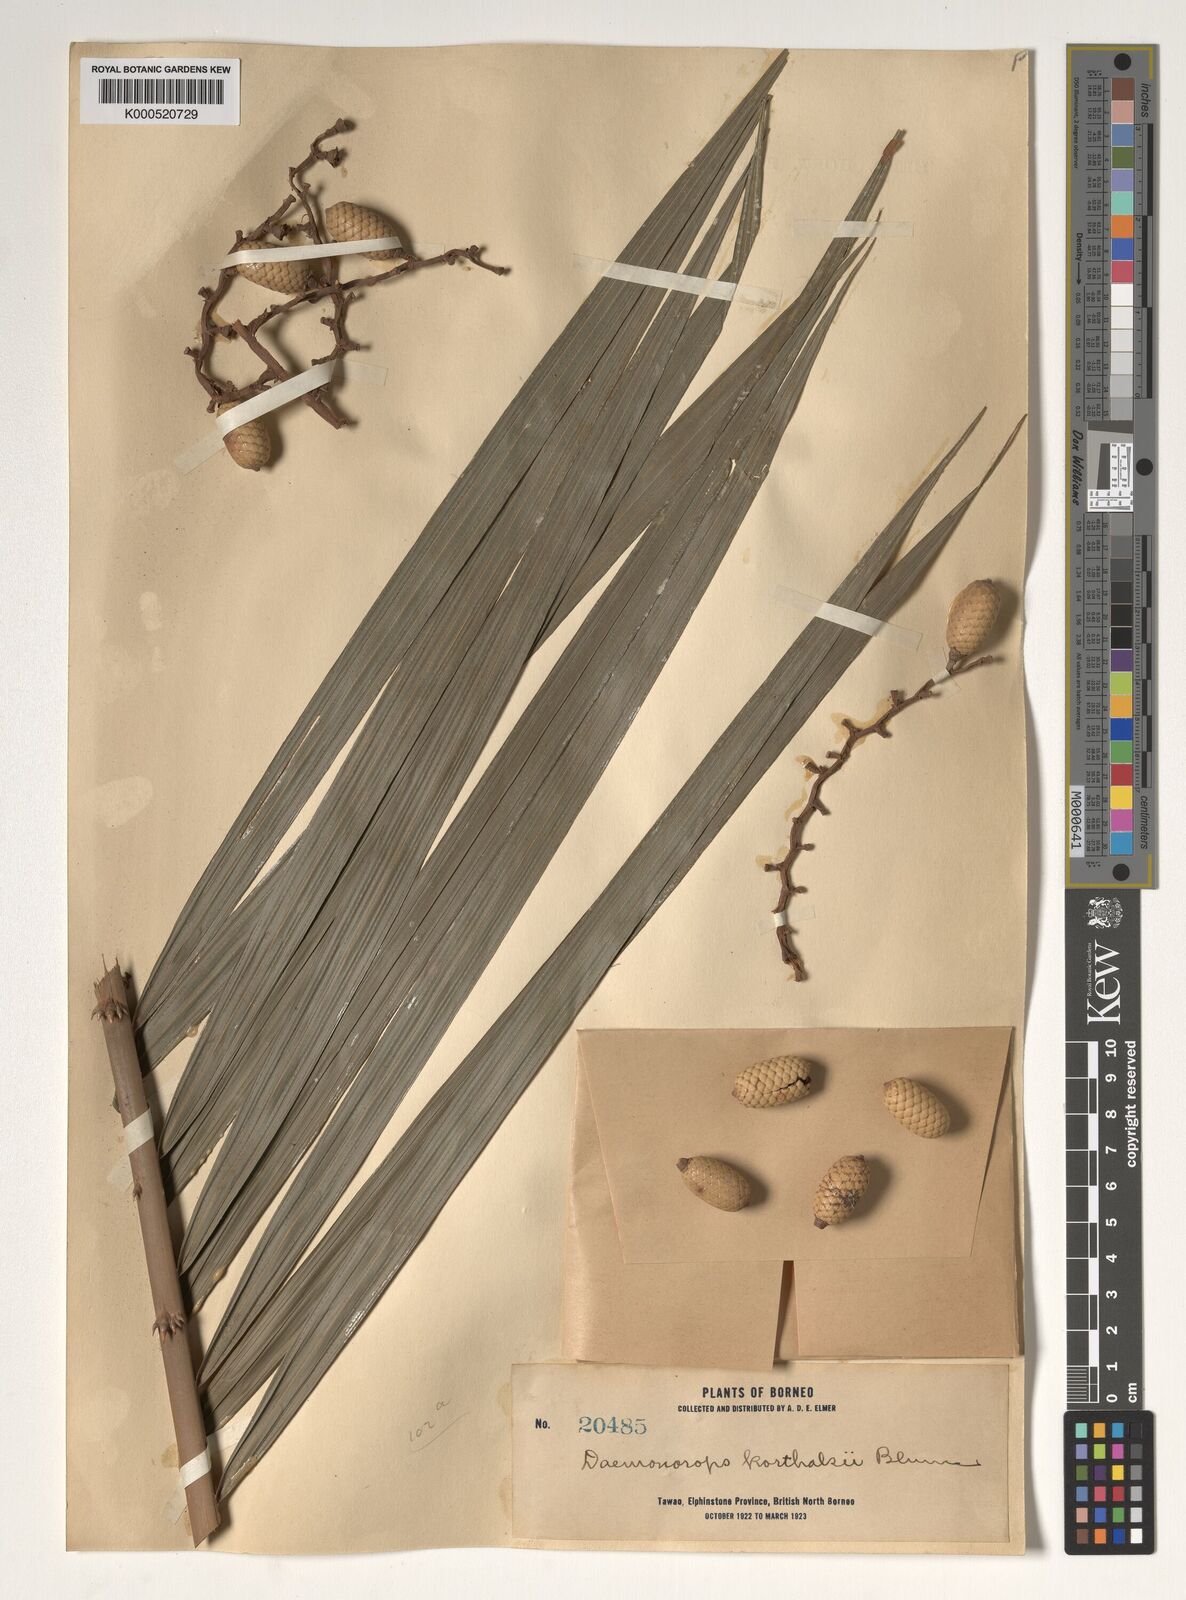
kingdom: Plantae
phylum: Tracheophyta
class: Liliopsida
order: Arecales
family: Arecaceae
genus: Calamus
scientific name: Calamus hirsutus
